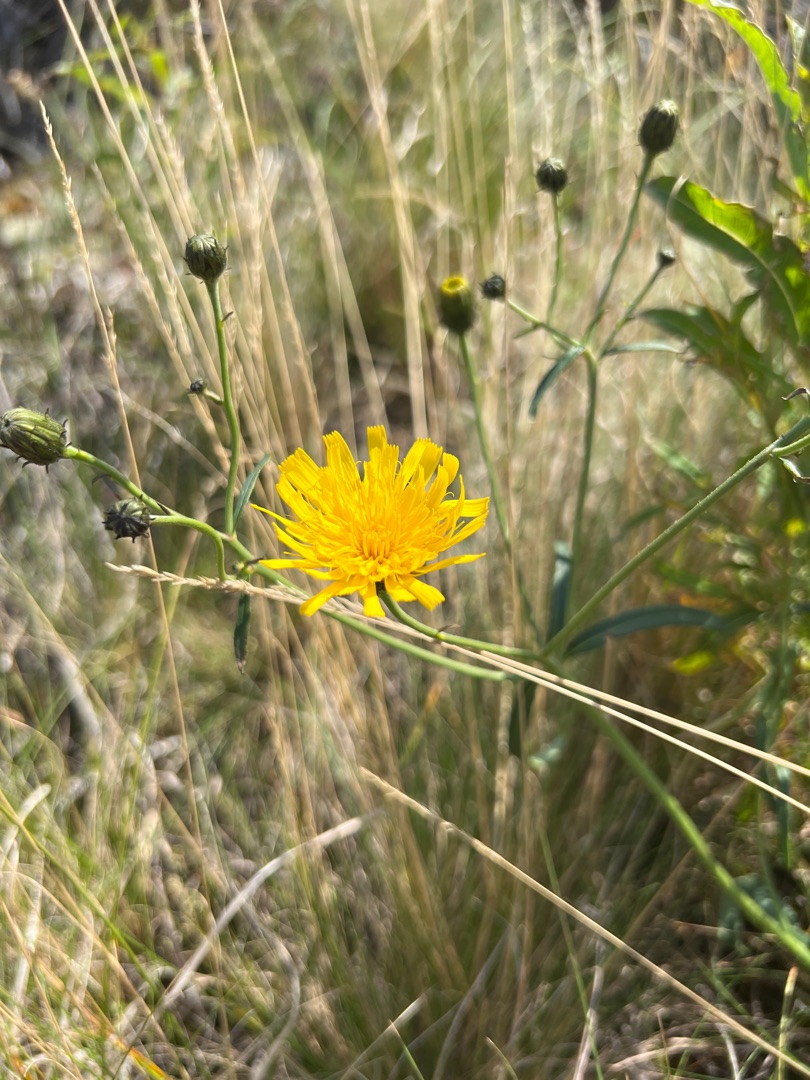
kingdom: Plantae
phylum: Tracheophyta
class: Magnoliopsida
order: Asterales
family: Asteraceae
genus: Hieracium
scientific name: Hieracium umbellatum
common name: Smalbladet høgeurt
